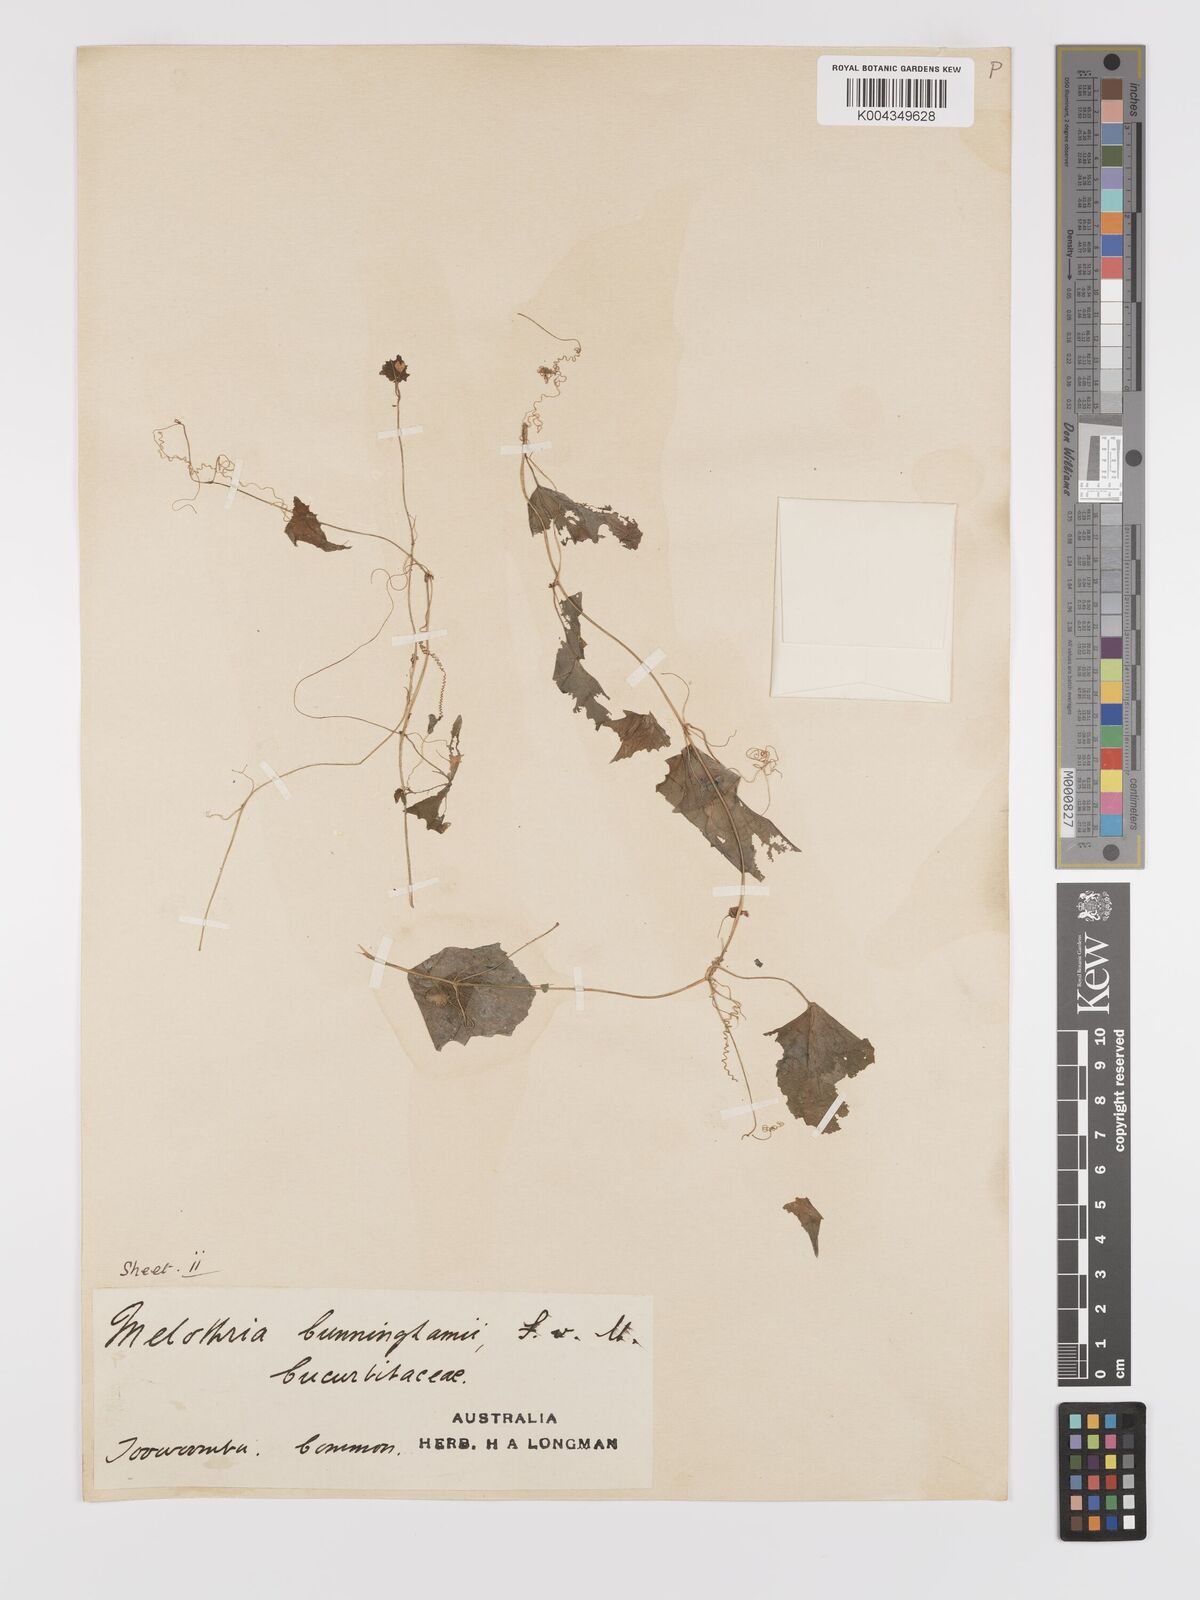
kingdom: Plantae
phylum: Tracheophyta
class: Magnoliopsida
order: Cucurbitales
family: Cucurbitaceae
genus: Zehneria
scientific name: Zehneria cunninghamii
